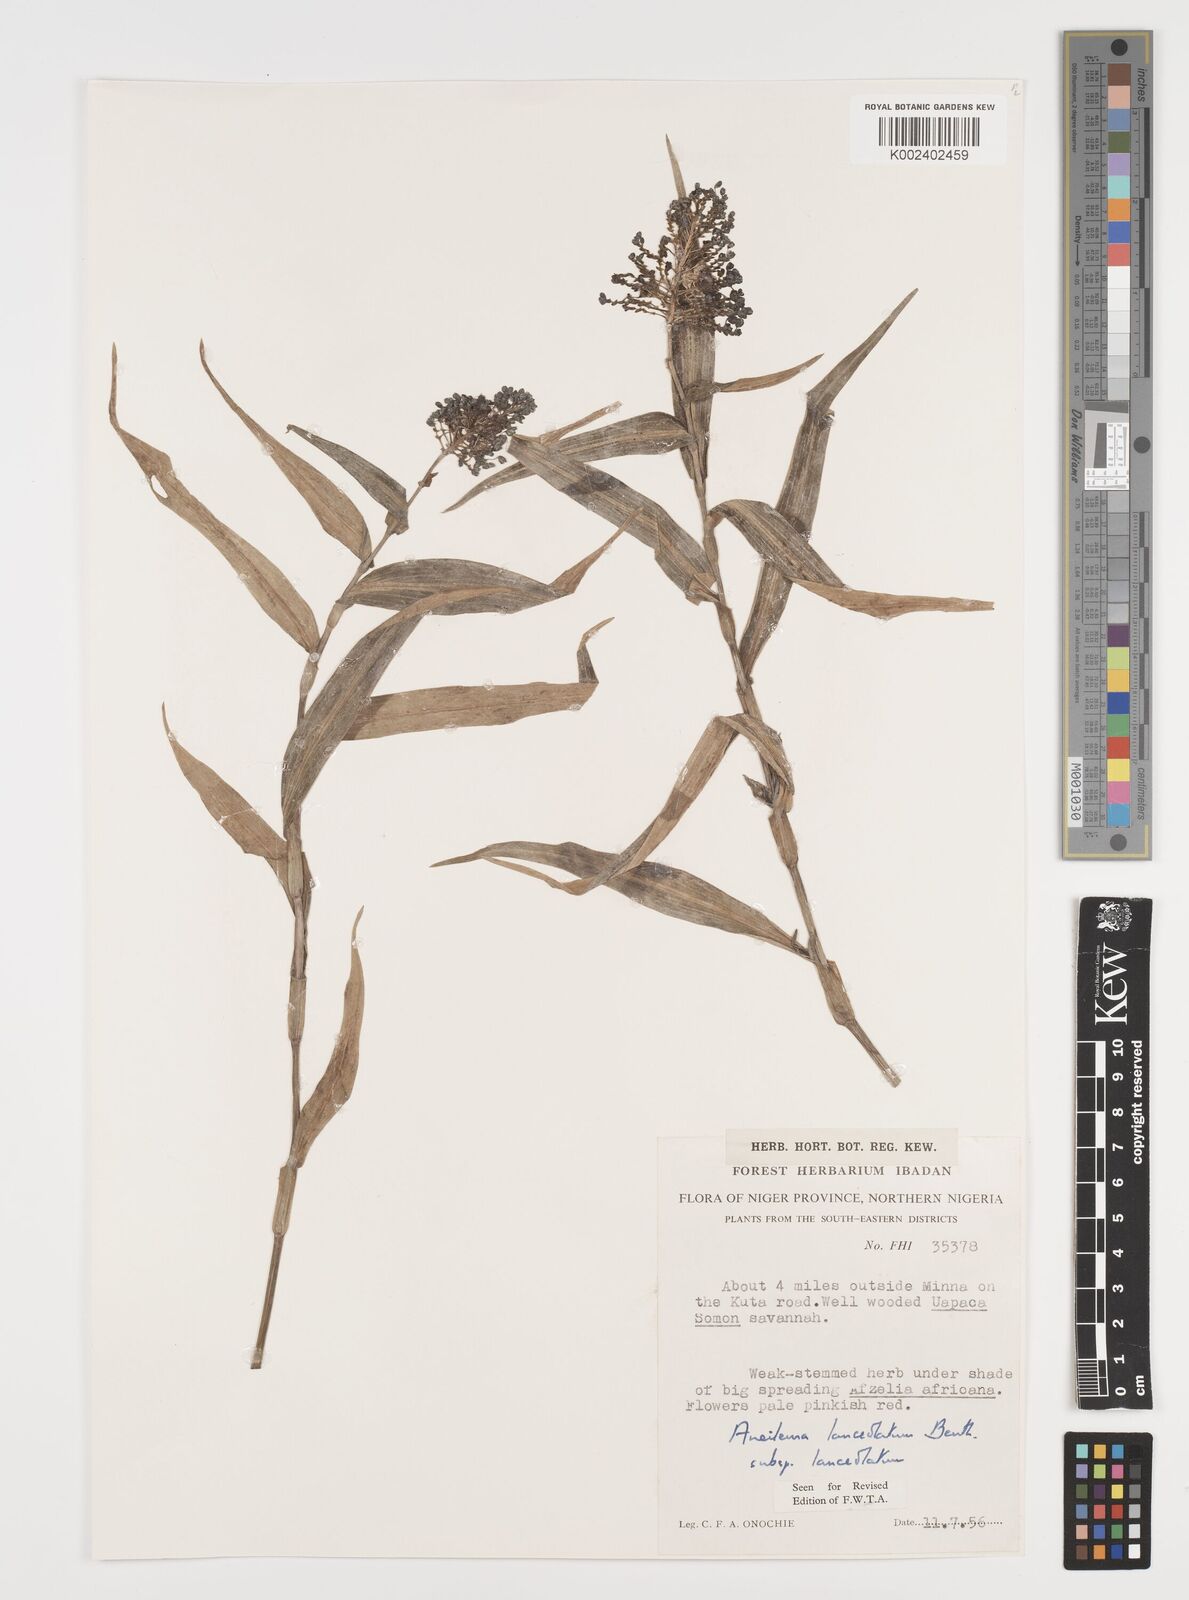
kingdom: Plantae
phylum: Tracheophyta
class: Liliopsida
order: Commelinales
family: Commelinaceae
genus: Aneilema
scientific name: Aneilema lanceolatum
